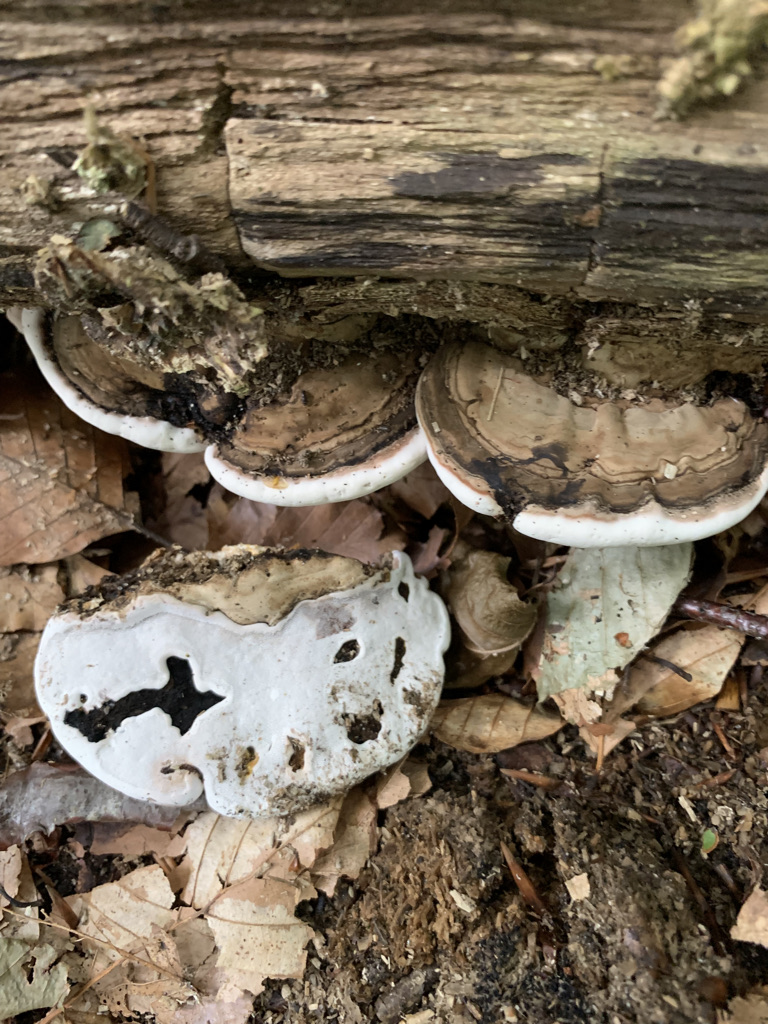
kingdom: Fungi
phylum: Basidiomycota
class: Agaricomycetes
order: Polyporales
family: Polyporaceae
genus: Ganoderma
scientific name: Ganoderma applanatum
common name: flad lakporesvamp
